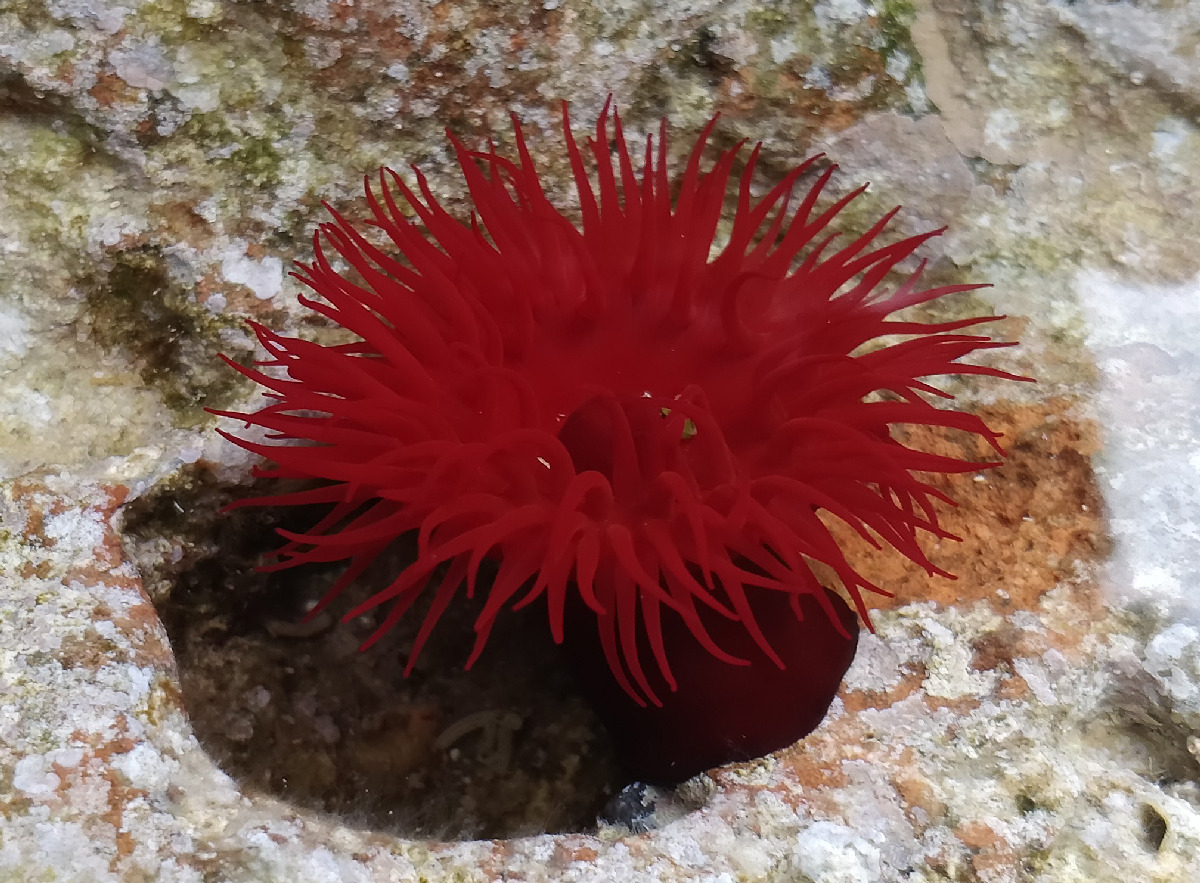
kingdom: Animalia
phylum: Cnidaria
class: Anthozoa
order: Actiniaria
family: Actiniidae
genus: Actinia
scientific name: Actinia mediterranea
